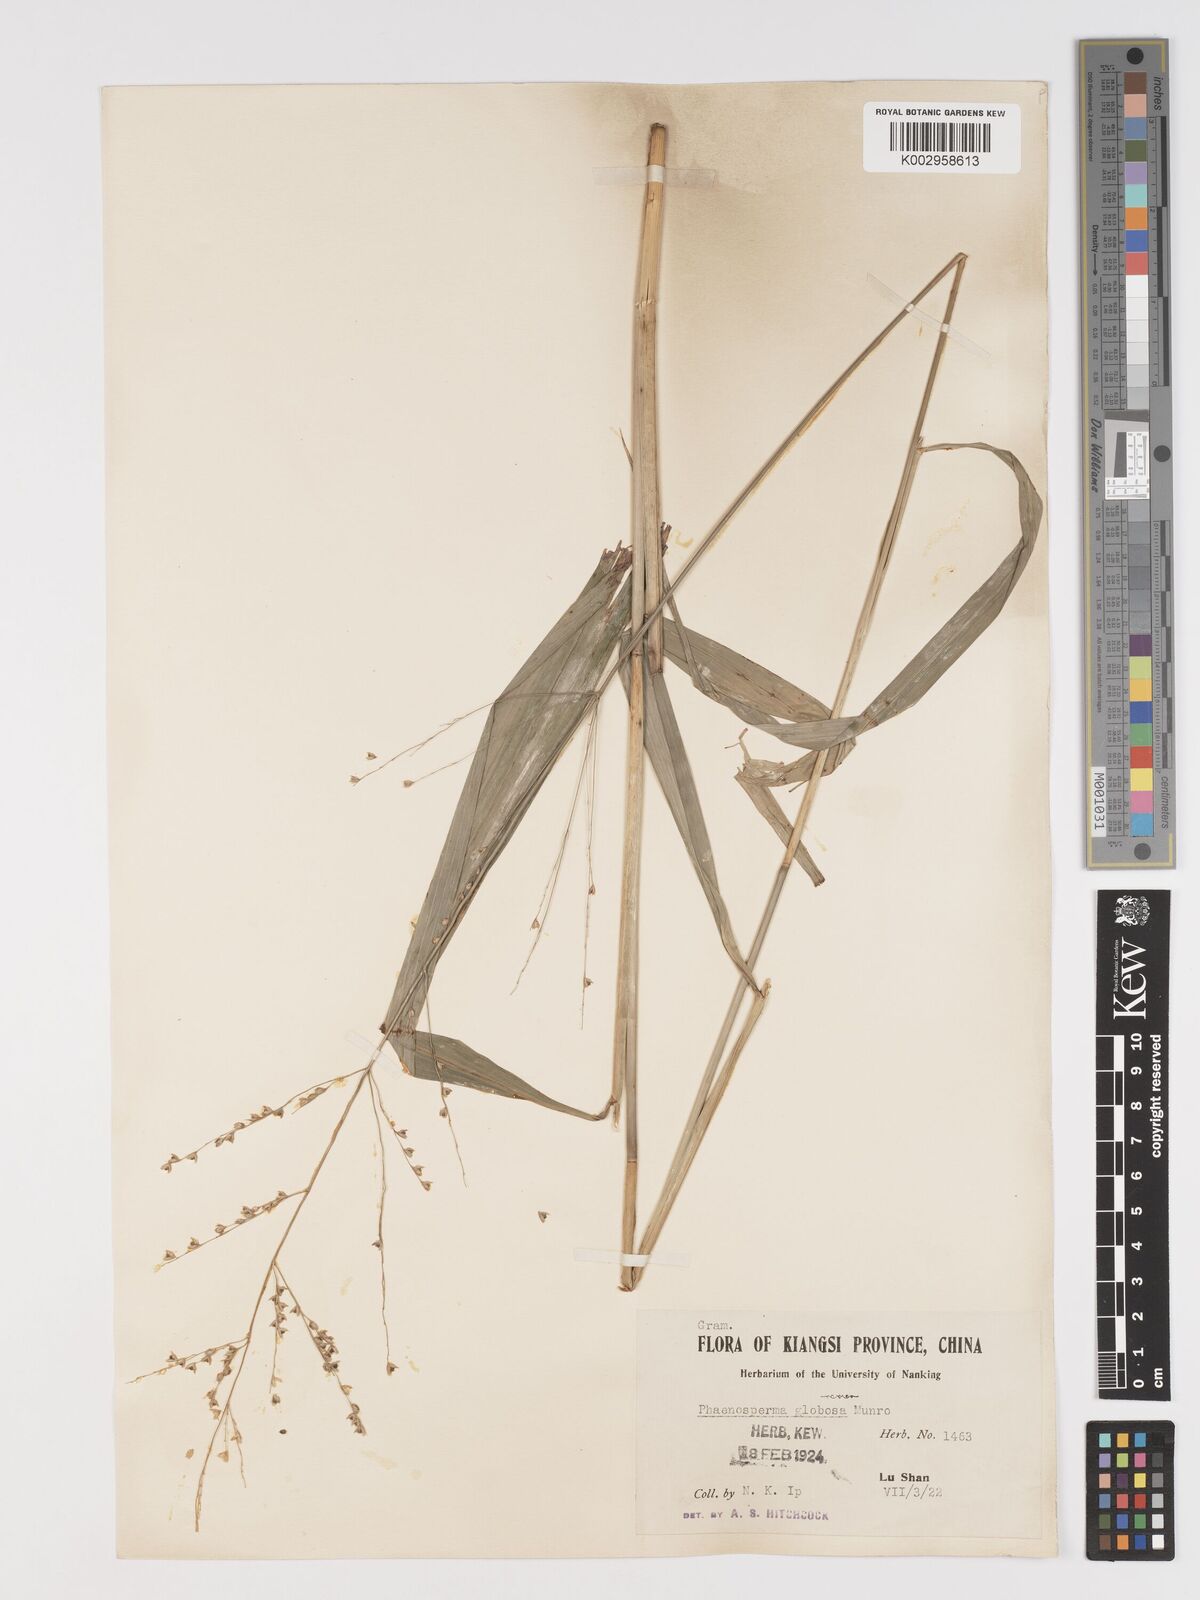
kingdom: Plantae
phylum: Tracheophyta
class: Liliopsida
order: Poales
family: Poaceae
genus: Phaenosperma
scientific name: Phaenosperma globosum
